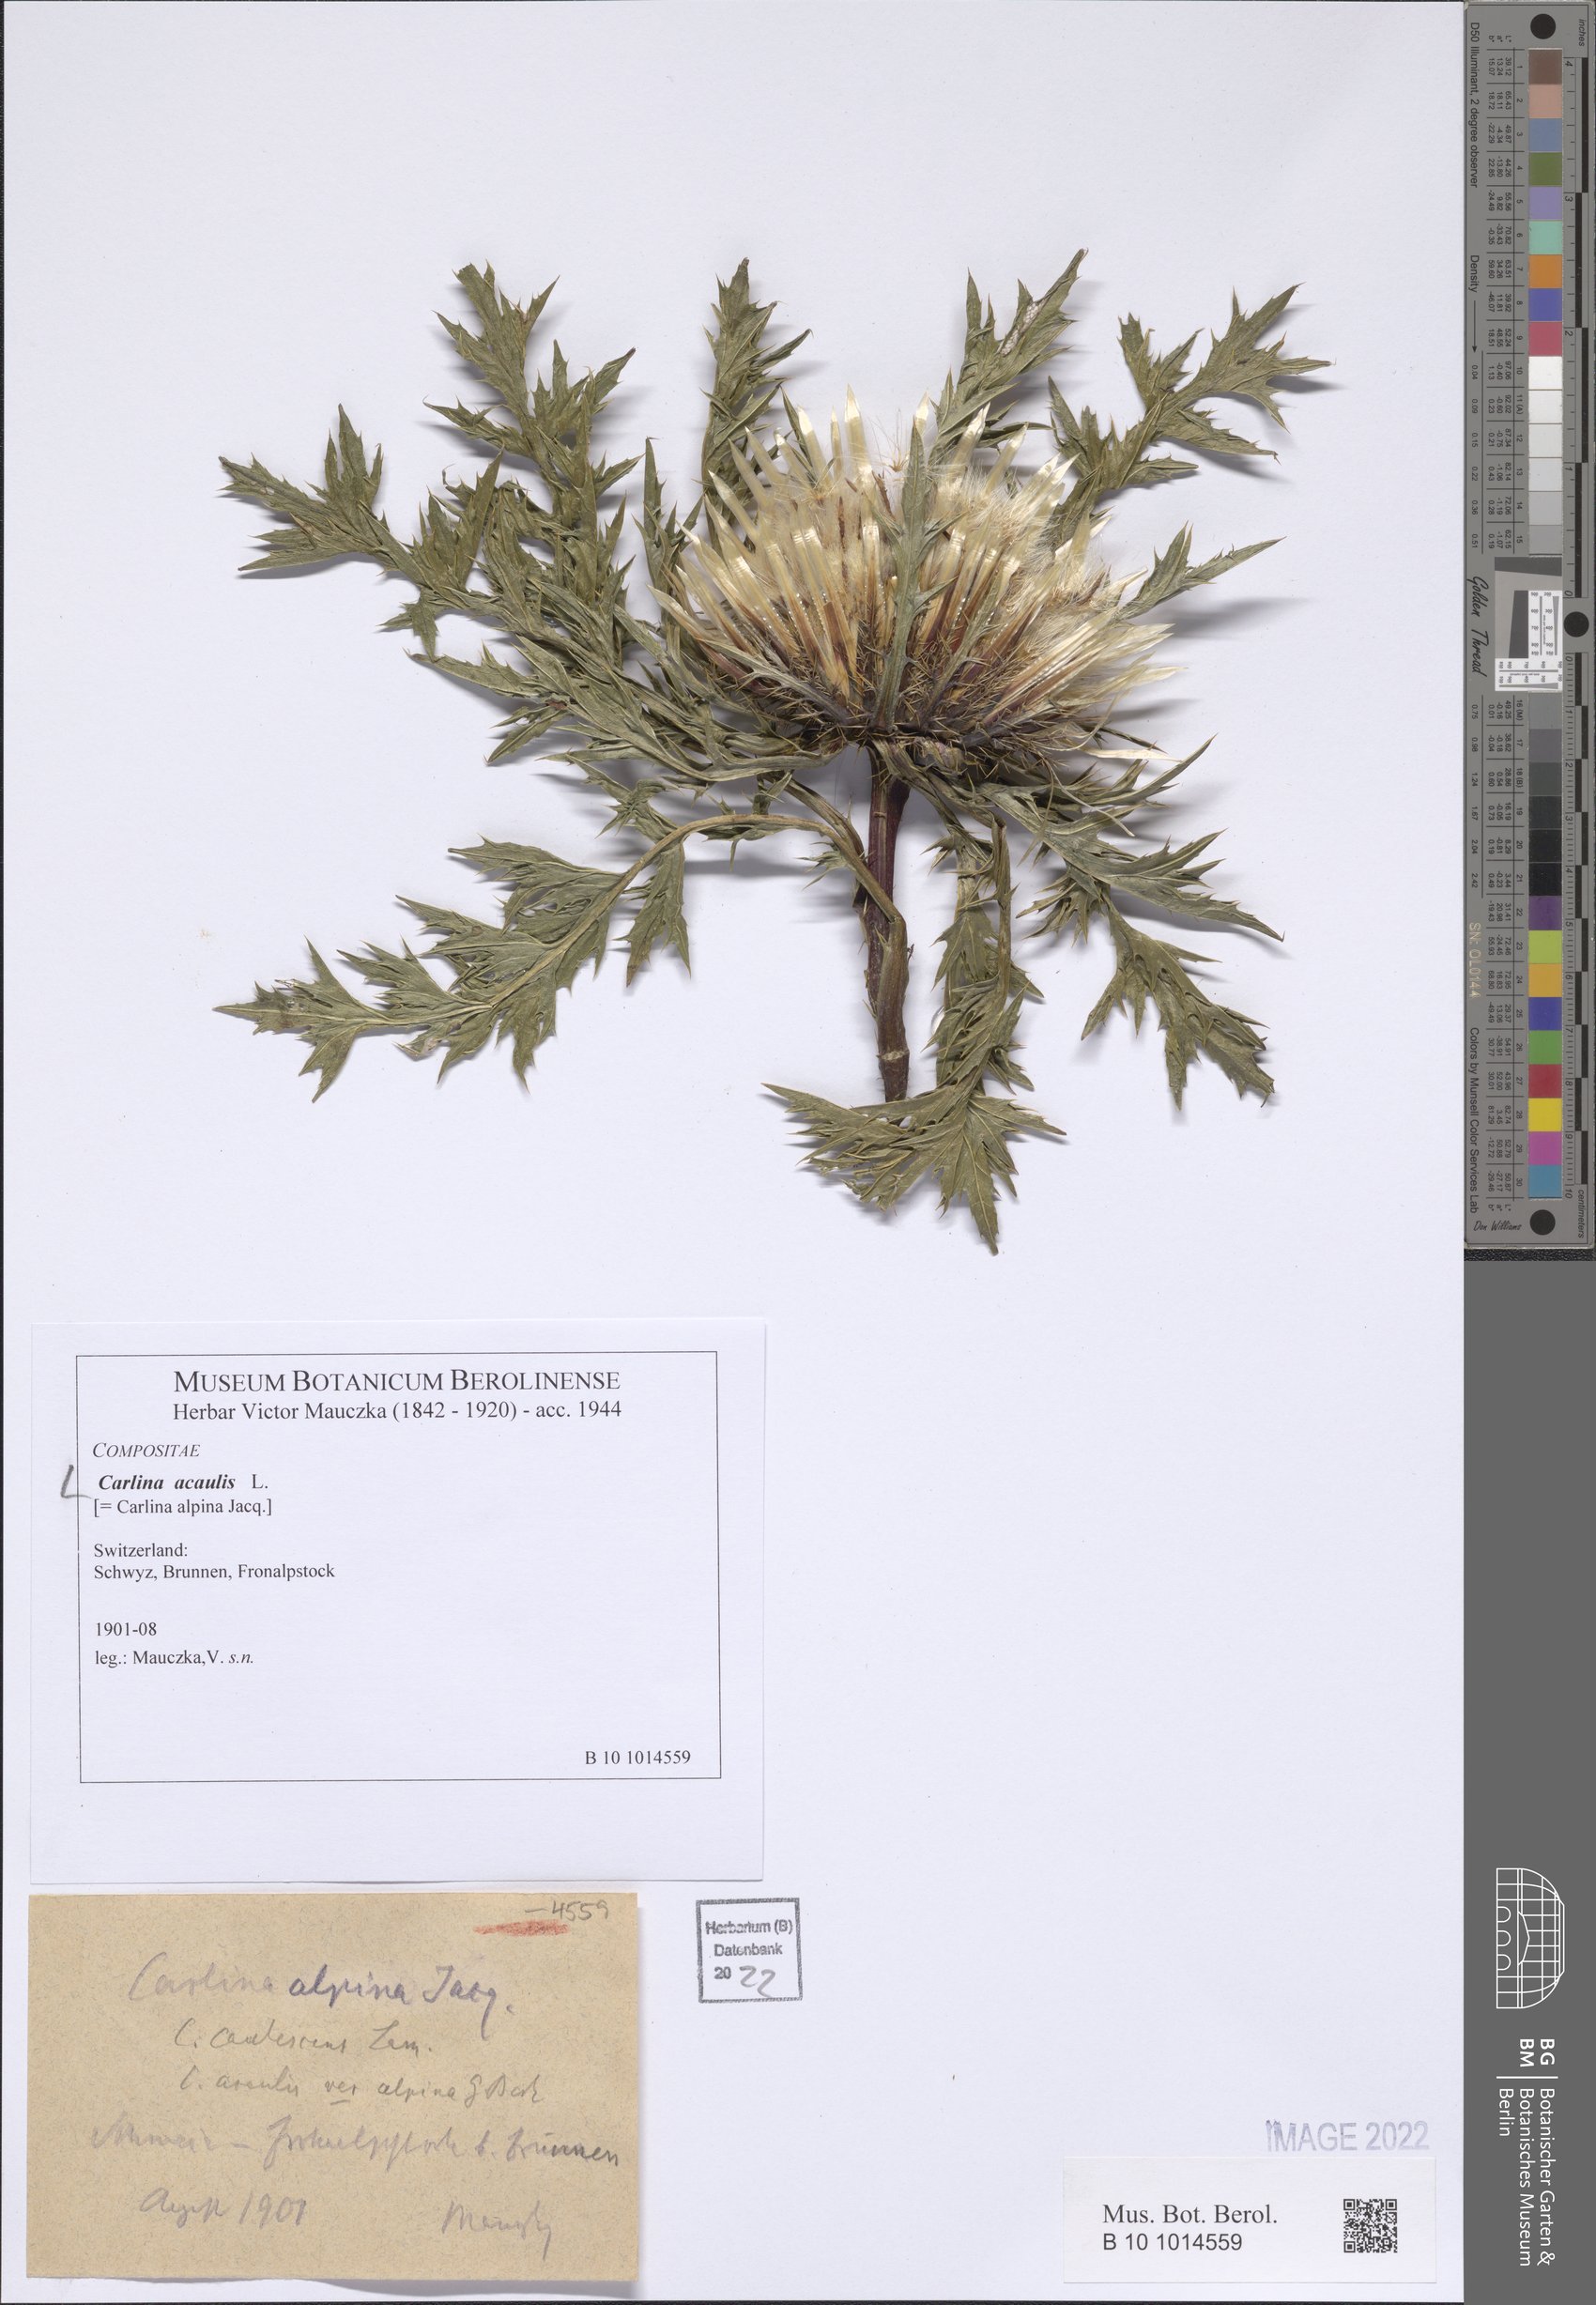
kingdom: Plantae
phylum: Tracheophyta
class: Magnoliopsida
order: Asterales
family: Asteraceae
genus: Carlina
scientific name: Carlina acaulis
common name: Stemless carline thistle
